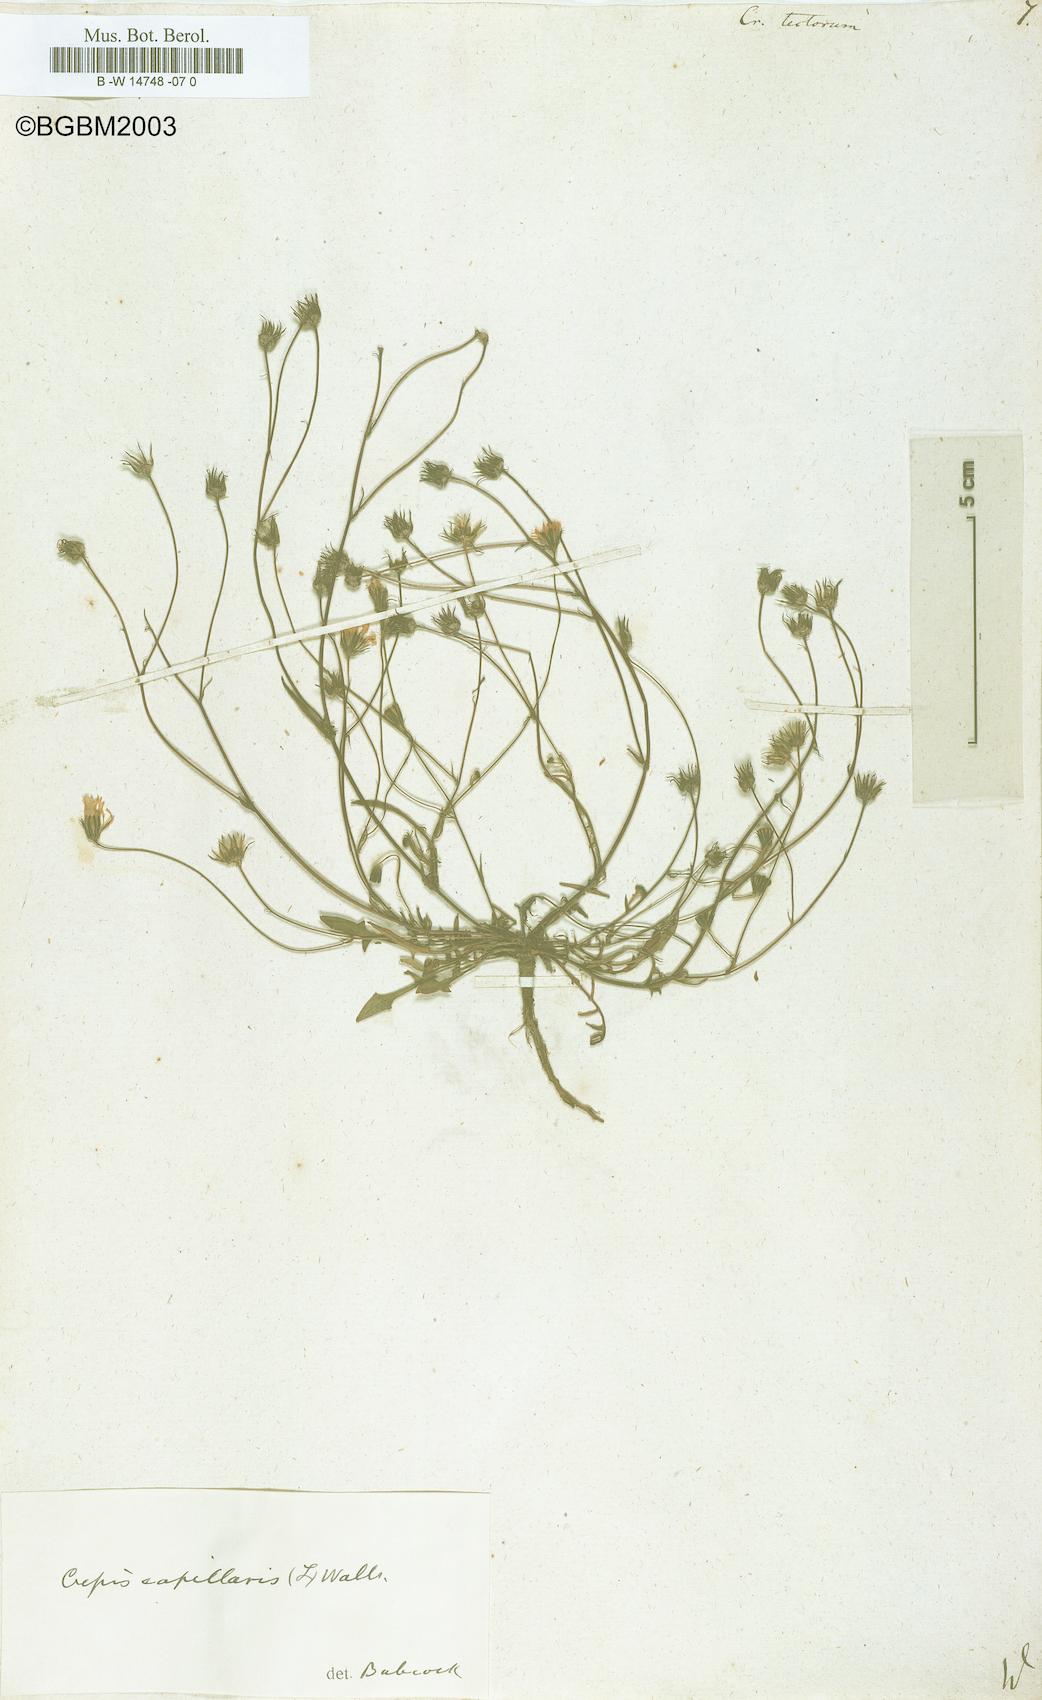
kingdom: Plantae
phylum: Tracheophyta
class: Magnoliopsida
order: Asterales
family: Asteraceae
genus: Crepis
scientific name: Crepis tectorum
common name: Narrow-leaved hawk's-beard
